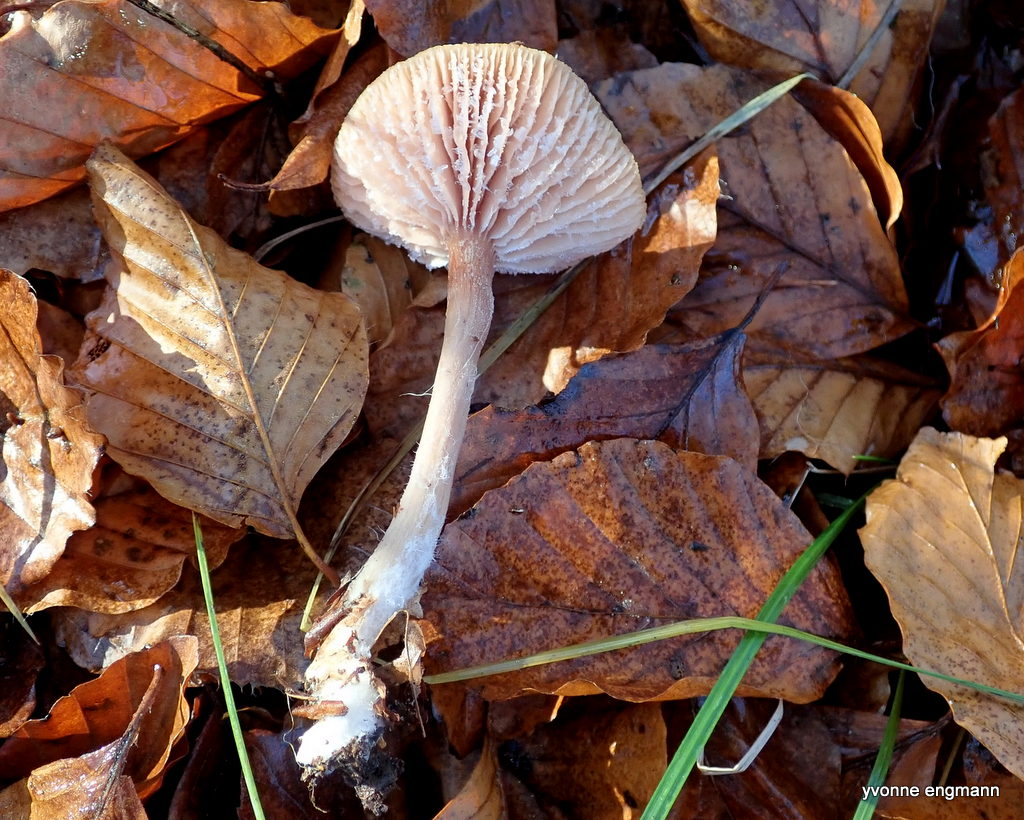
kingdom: Fungi
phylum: Basidiomycota
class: Agaricomycetes
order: Agaricales
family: Hydnangiaceae
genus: Laccaria
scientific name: Laccaria laccata
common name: rød ametysthat
